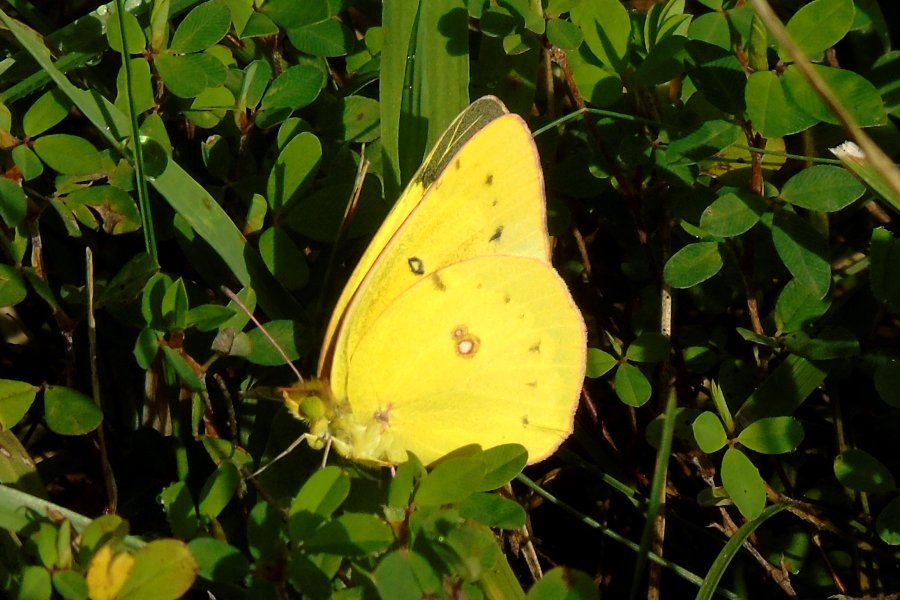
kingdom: Animalia
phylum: Arthropoda
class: Insecta
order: Lepidoptera
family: Pieridae
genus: Colias
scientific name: Colias eurytheme
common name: Orange Sulphur
